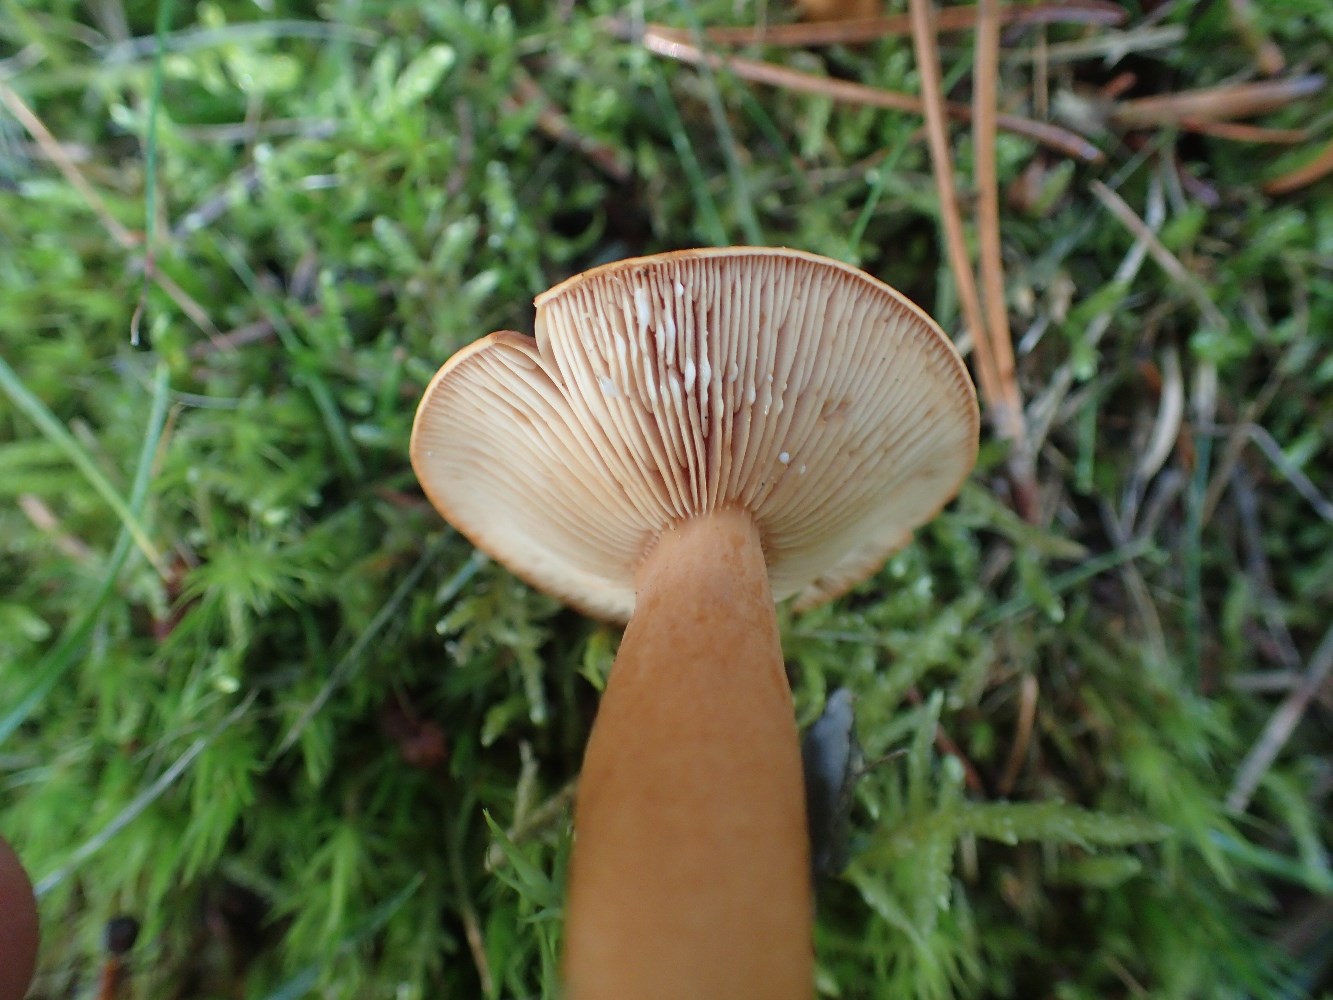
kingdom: Fungi
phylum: Basidiomycota
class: Agaricomycetes
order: Russulales
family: Russulaceae
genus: Lactarius
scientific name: Lactarius tabidus
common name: rynket mælkehat
